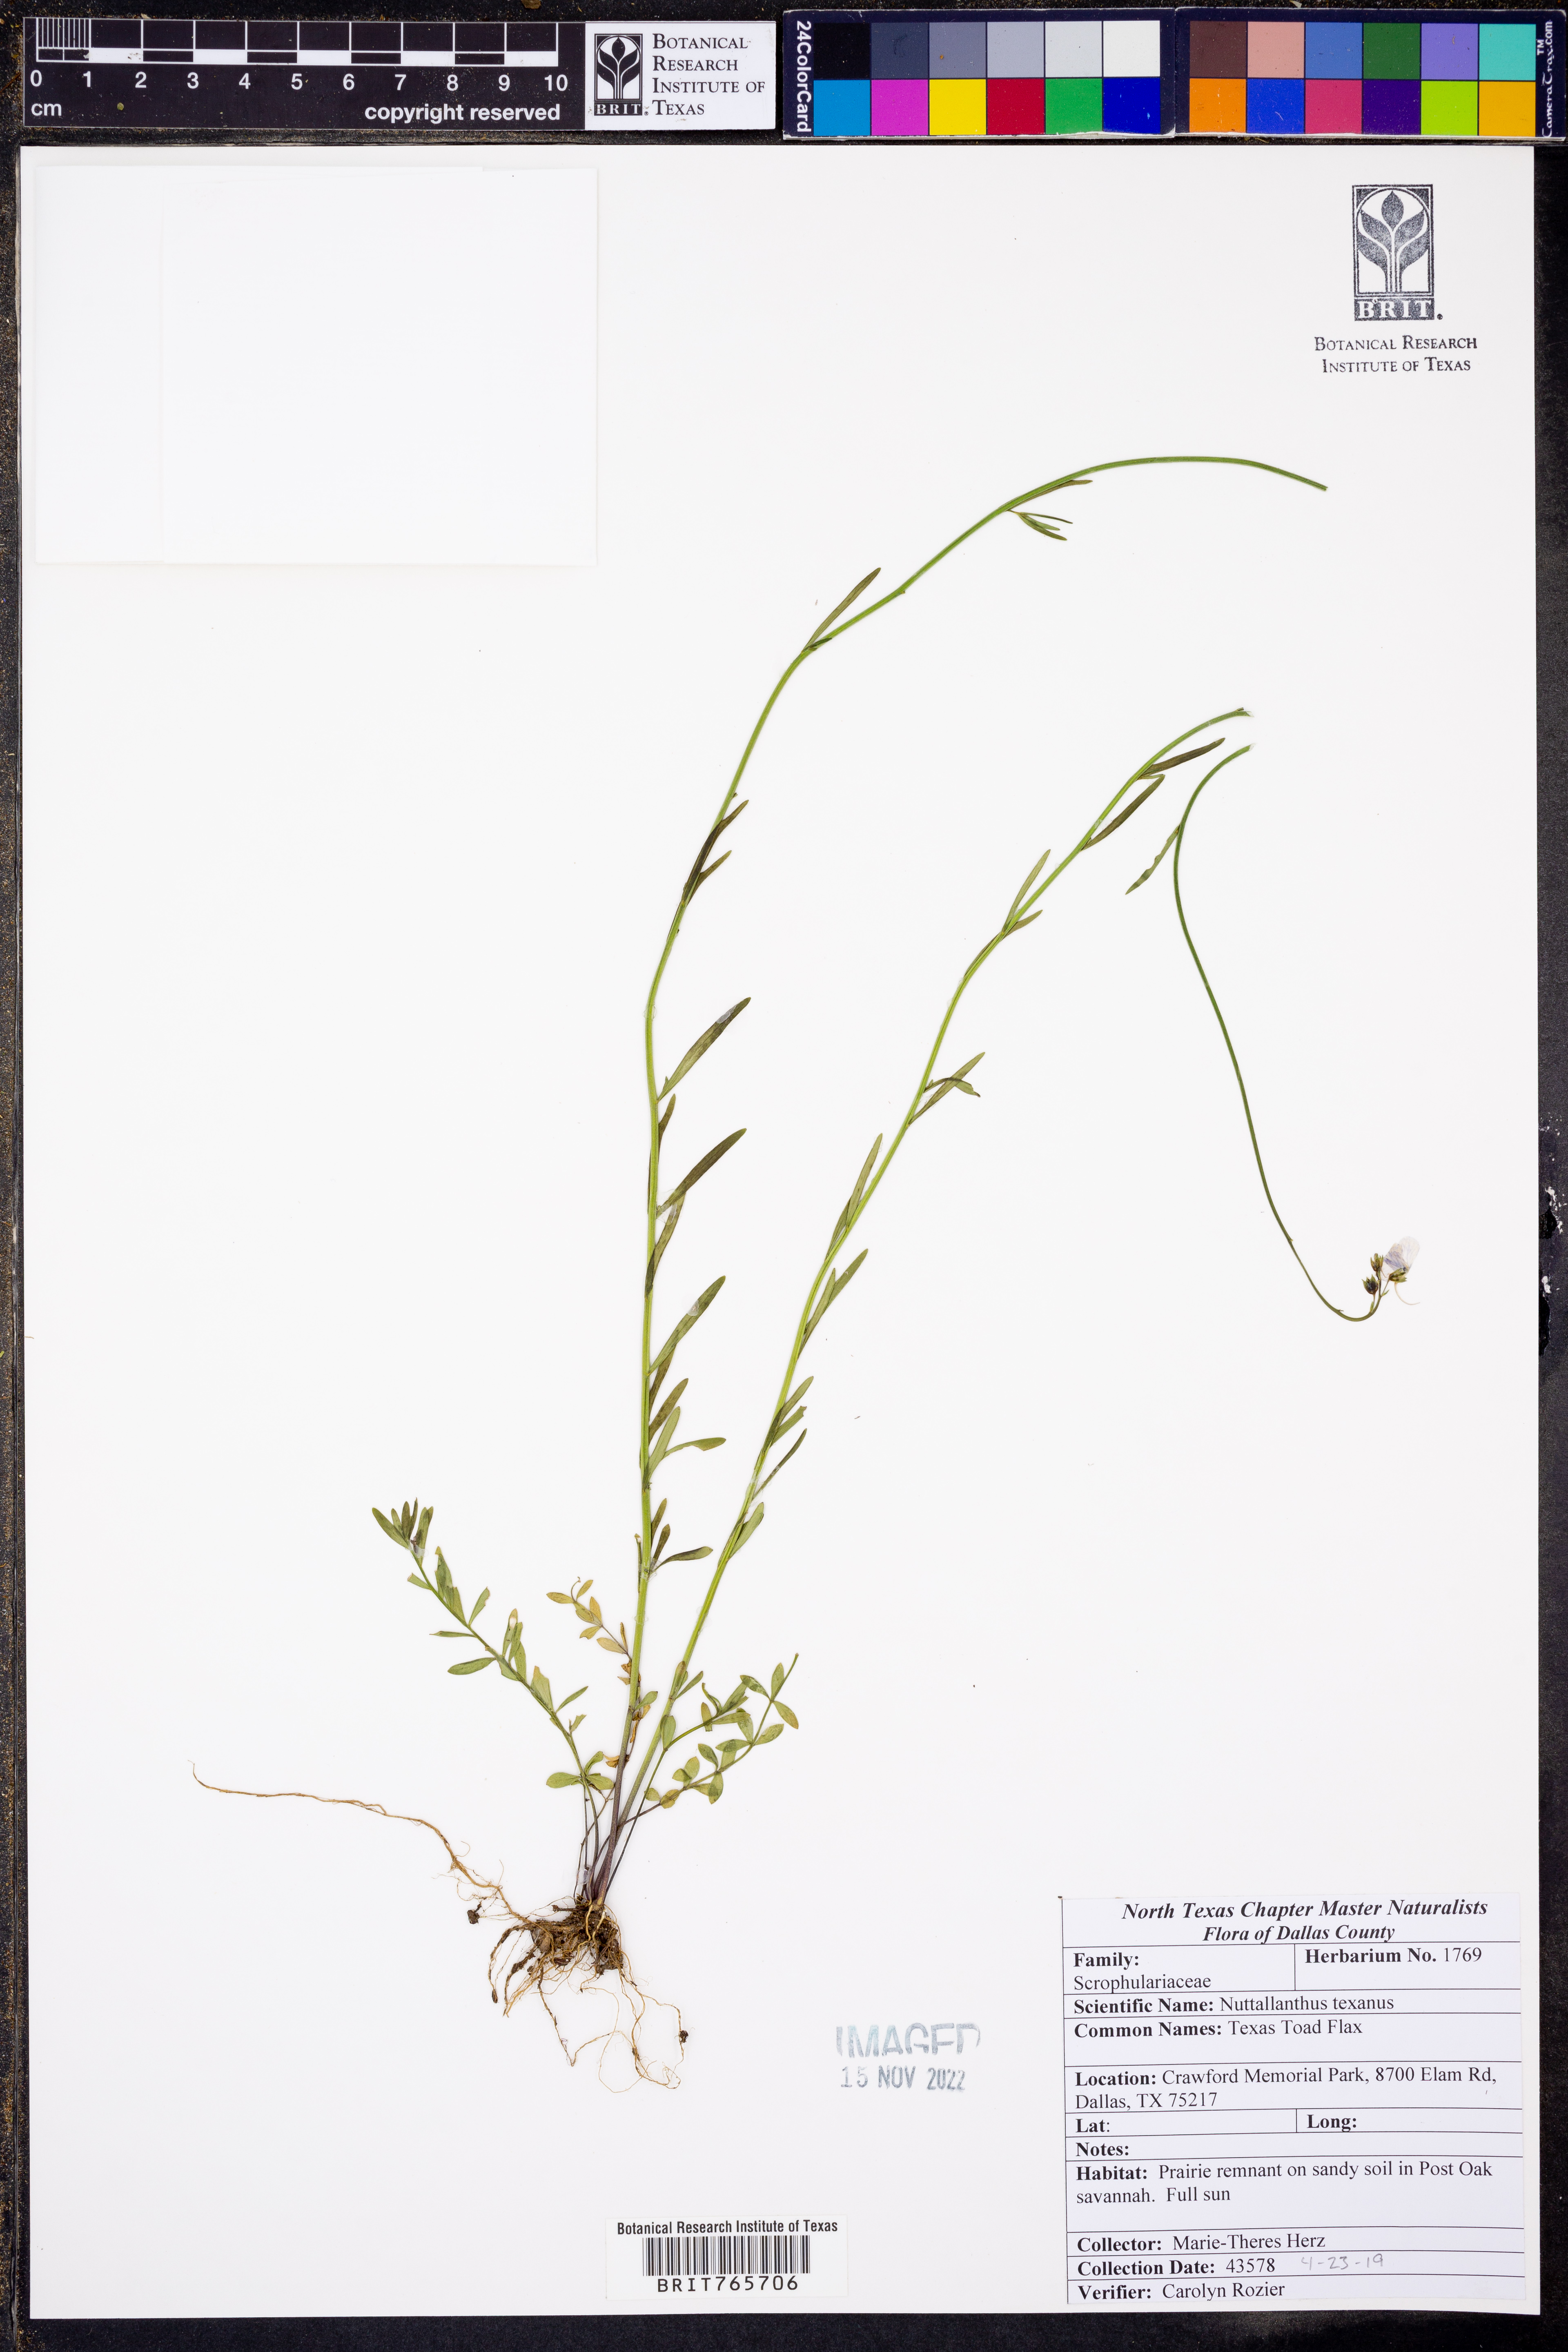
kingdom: Plantae
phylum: Tracheophyta
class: Magnoliopsida
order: Lamiales
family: Plantaginaceae
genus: Nuttallanthus
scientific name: Nuttallanthus texanus
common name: Texas toadflax
